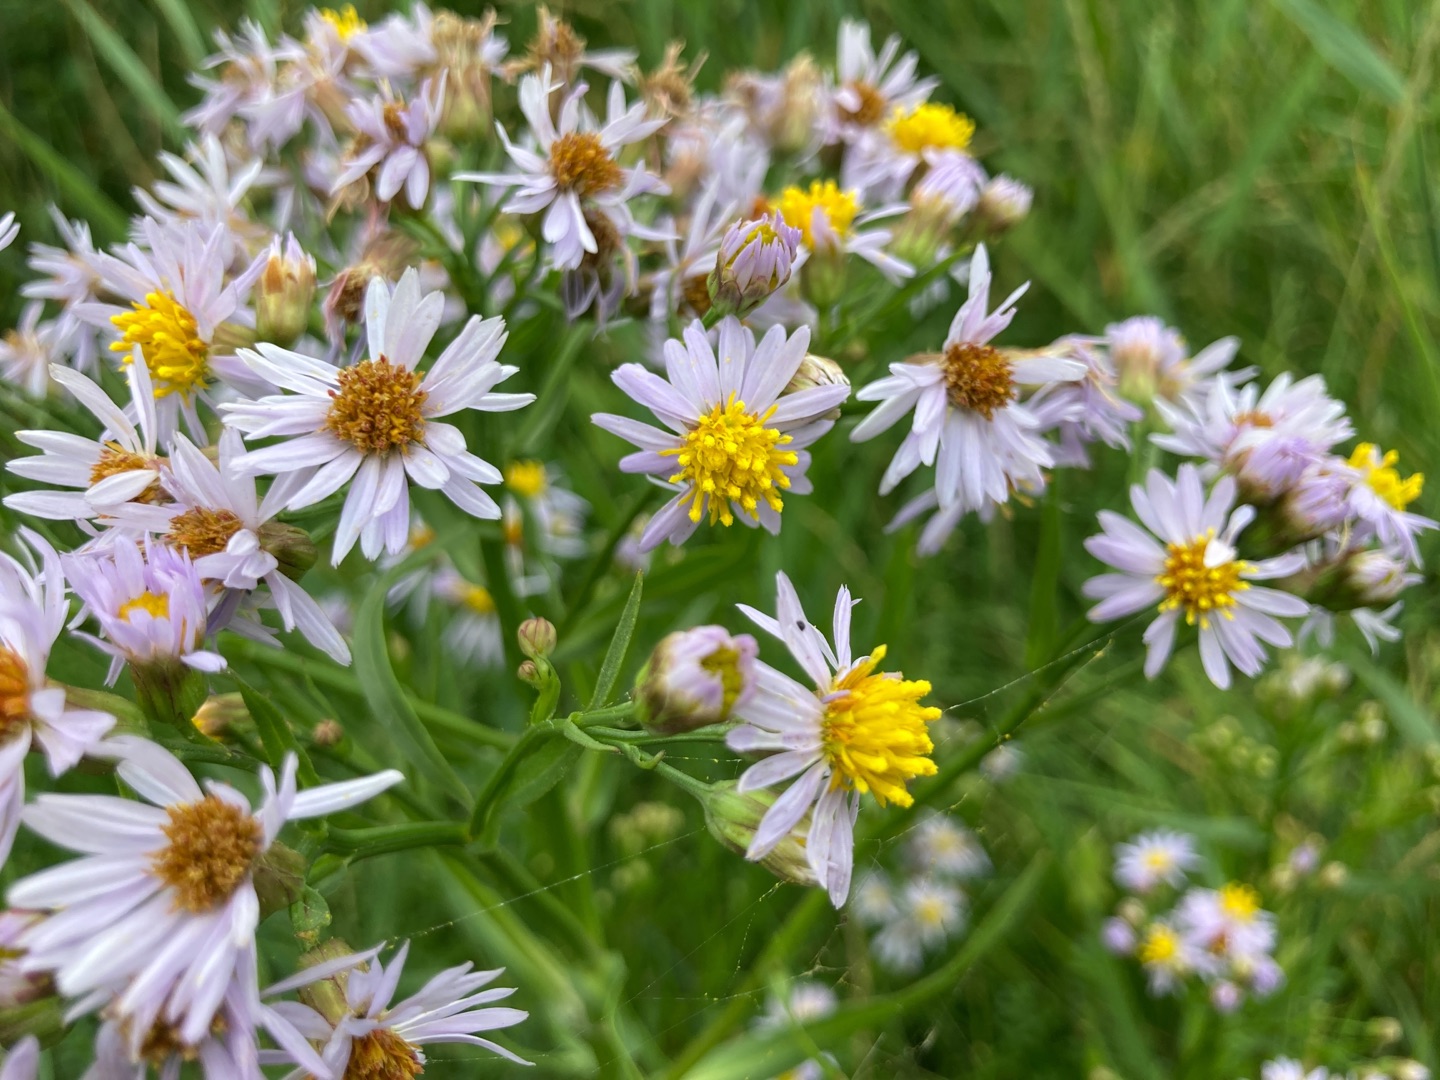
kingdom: Plantae
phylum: Tracheophyta
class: Magnoliopsida
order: Asterales
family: Asteraceae
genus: Tripolium
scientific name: Tripolium pannonicum
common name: Strandasters
